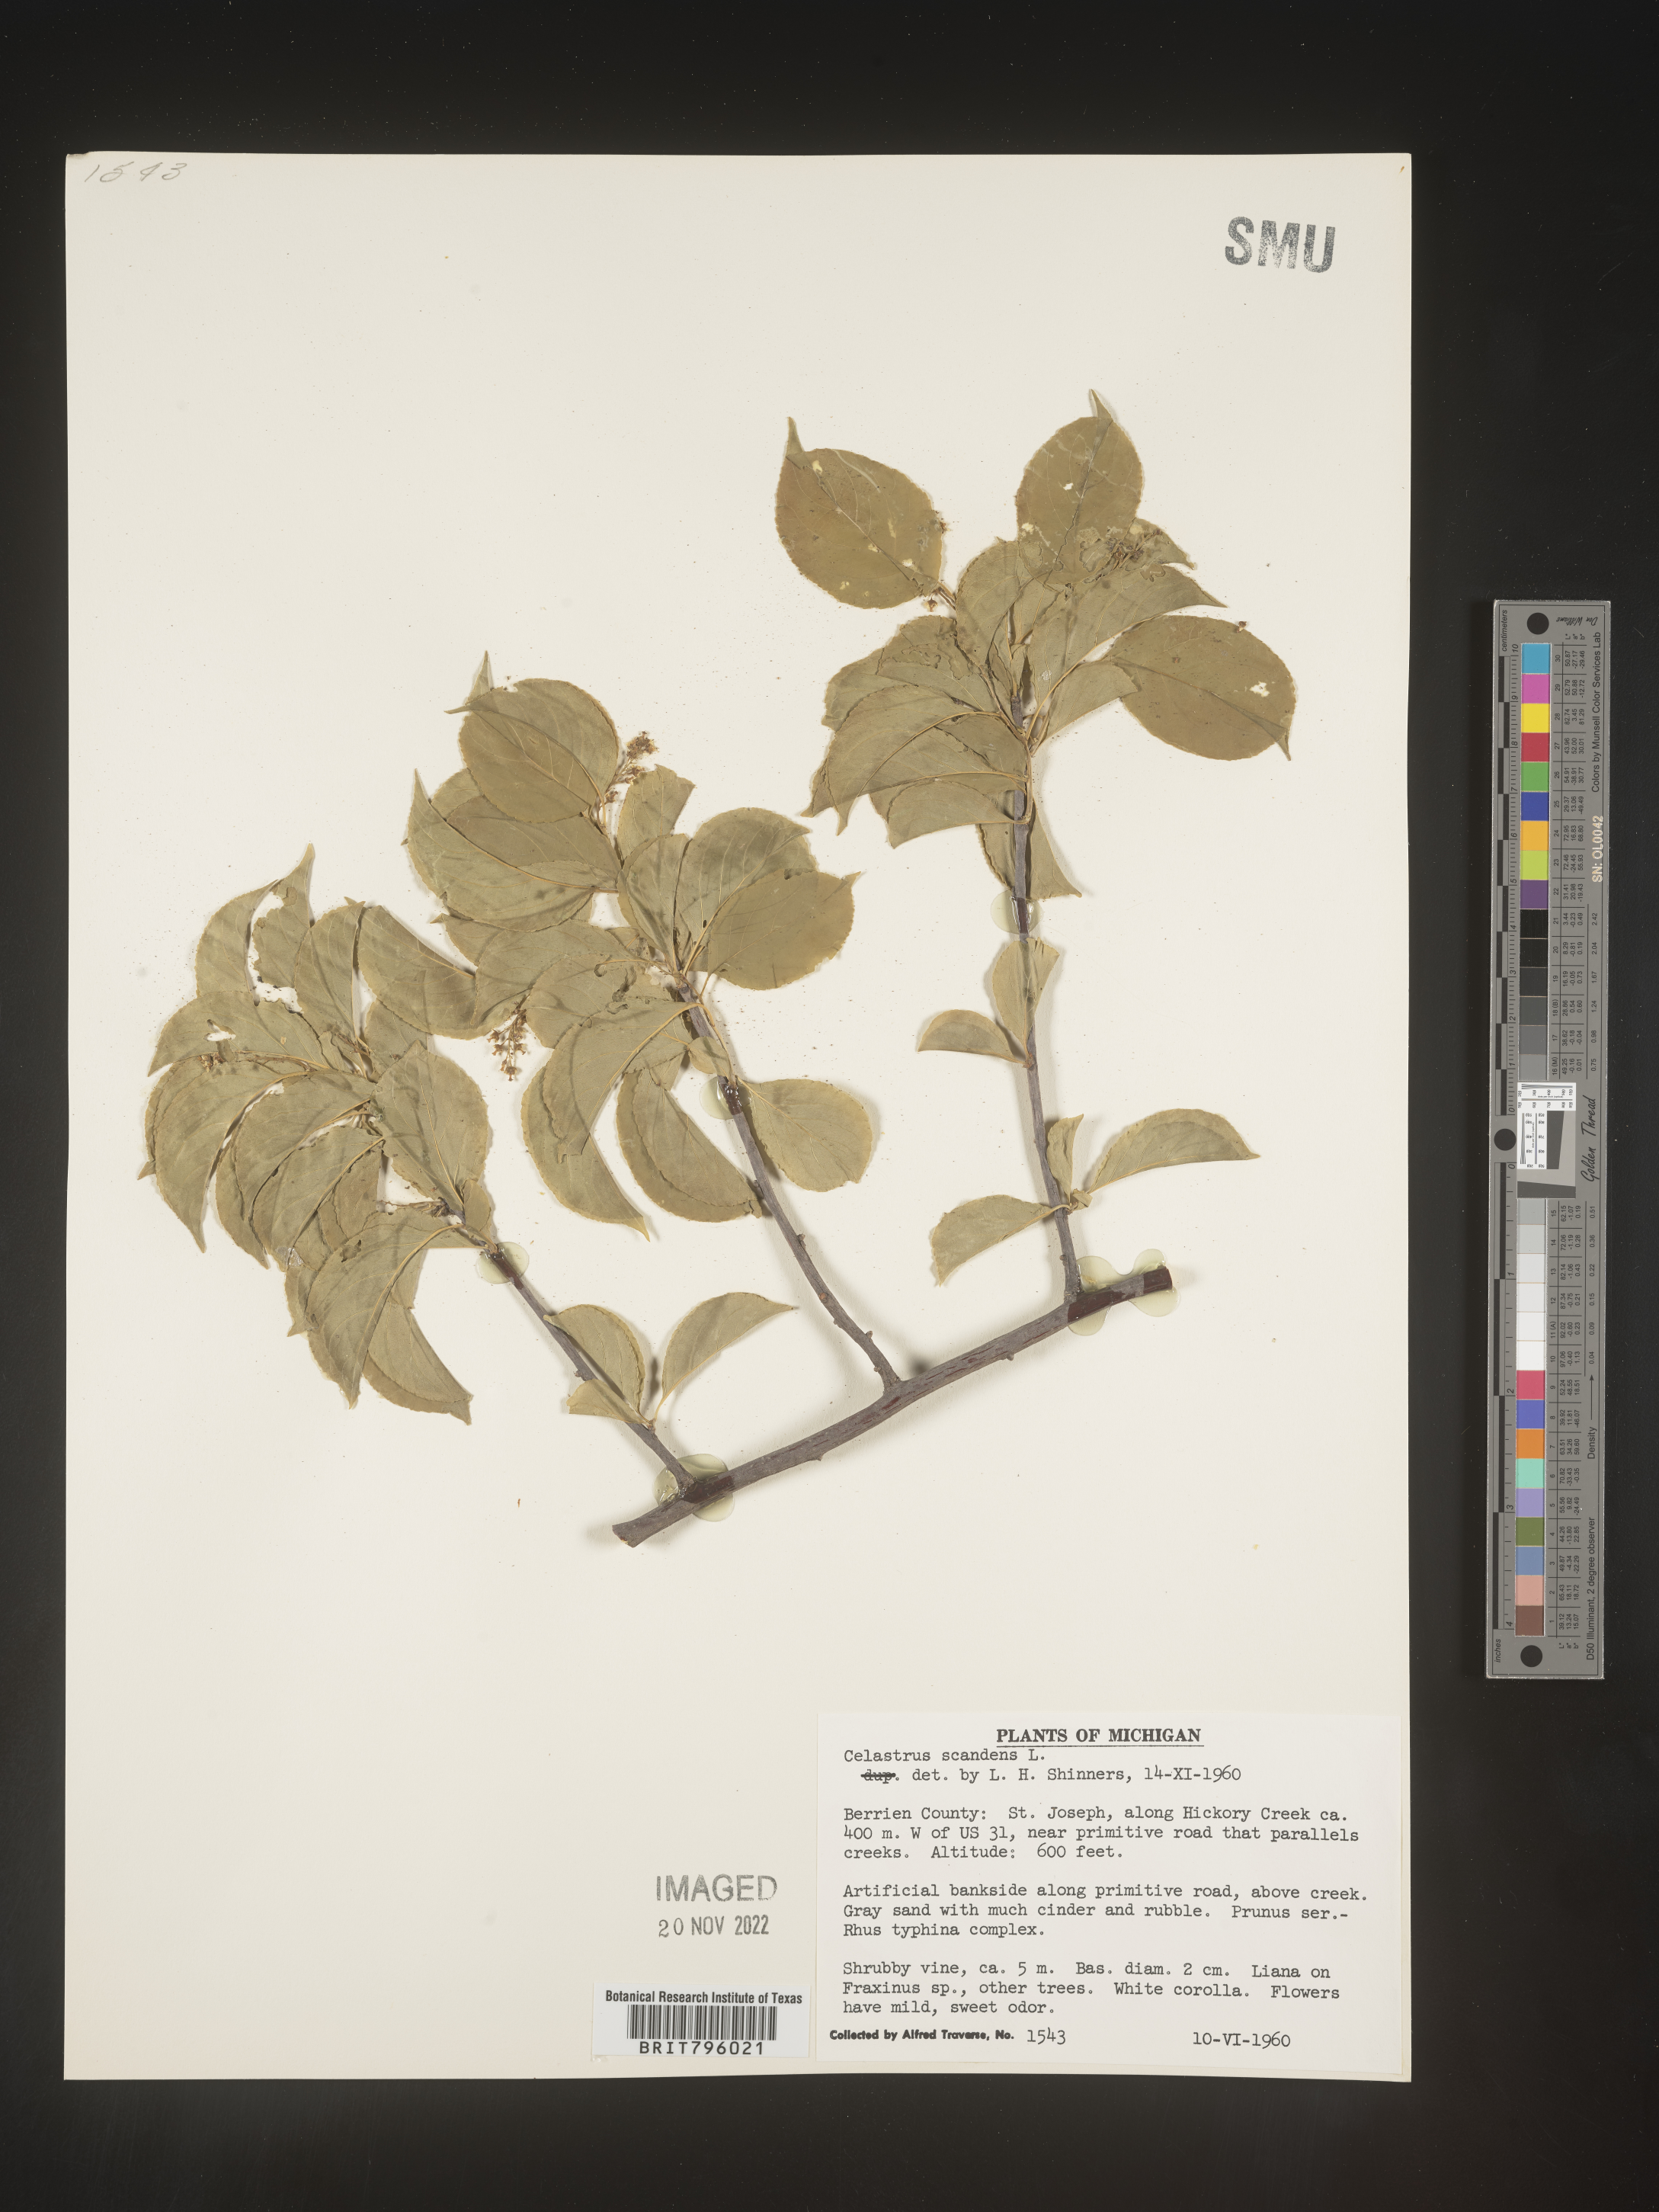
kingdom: Plantae
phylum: Tracheophyta
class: Magnoliopsida
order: Celastrales
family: Celastraceae
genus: Celastrus
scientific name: Celastrus scandens
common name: American bittersweet
